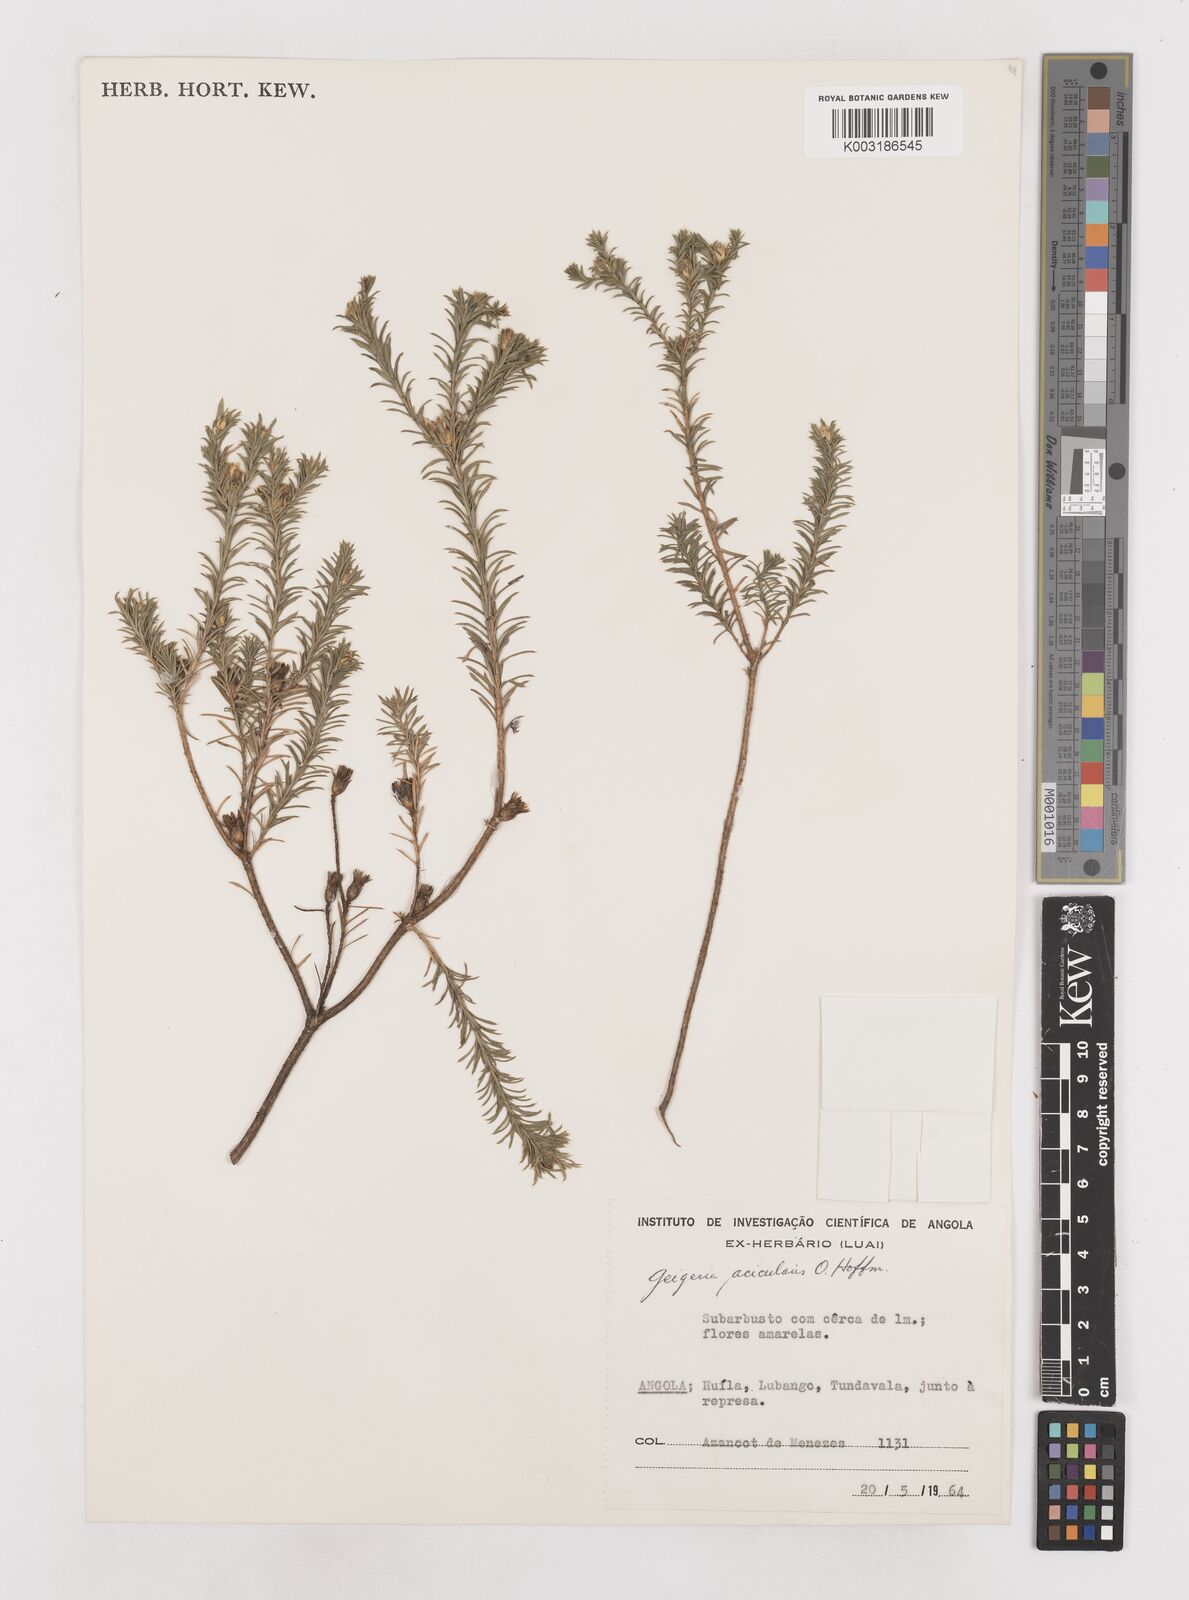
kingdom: Plantae
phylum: Tracheophyta
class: Magnoliopsida
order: Asterales
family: Asteraceae
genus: Geigeria
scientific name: Geigeria acicularis
